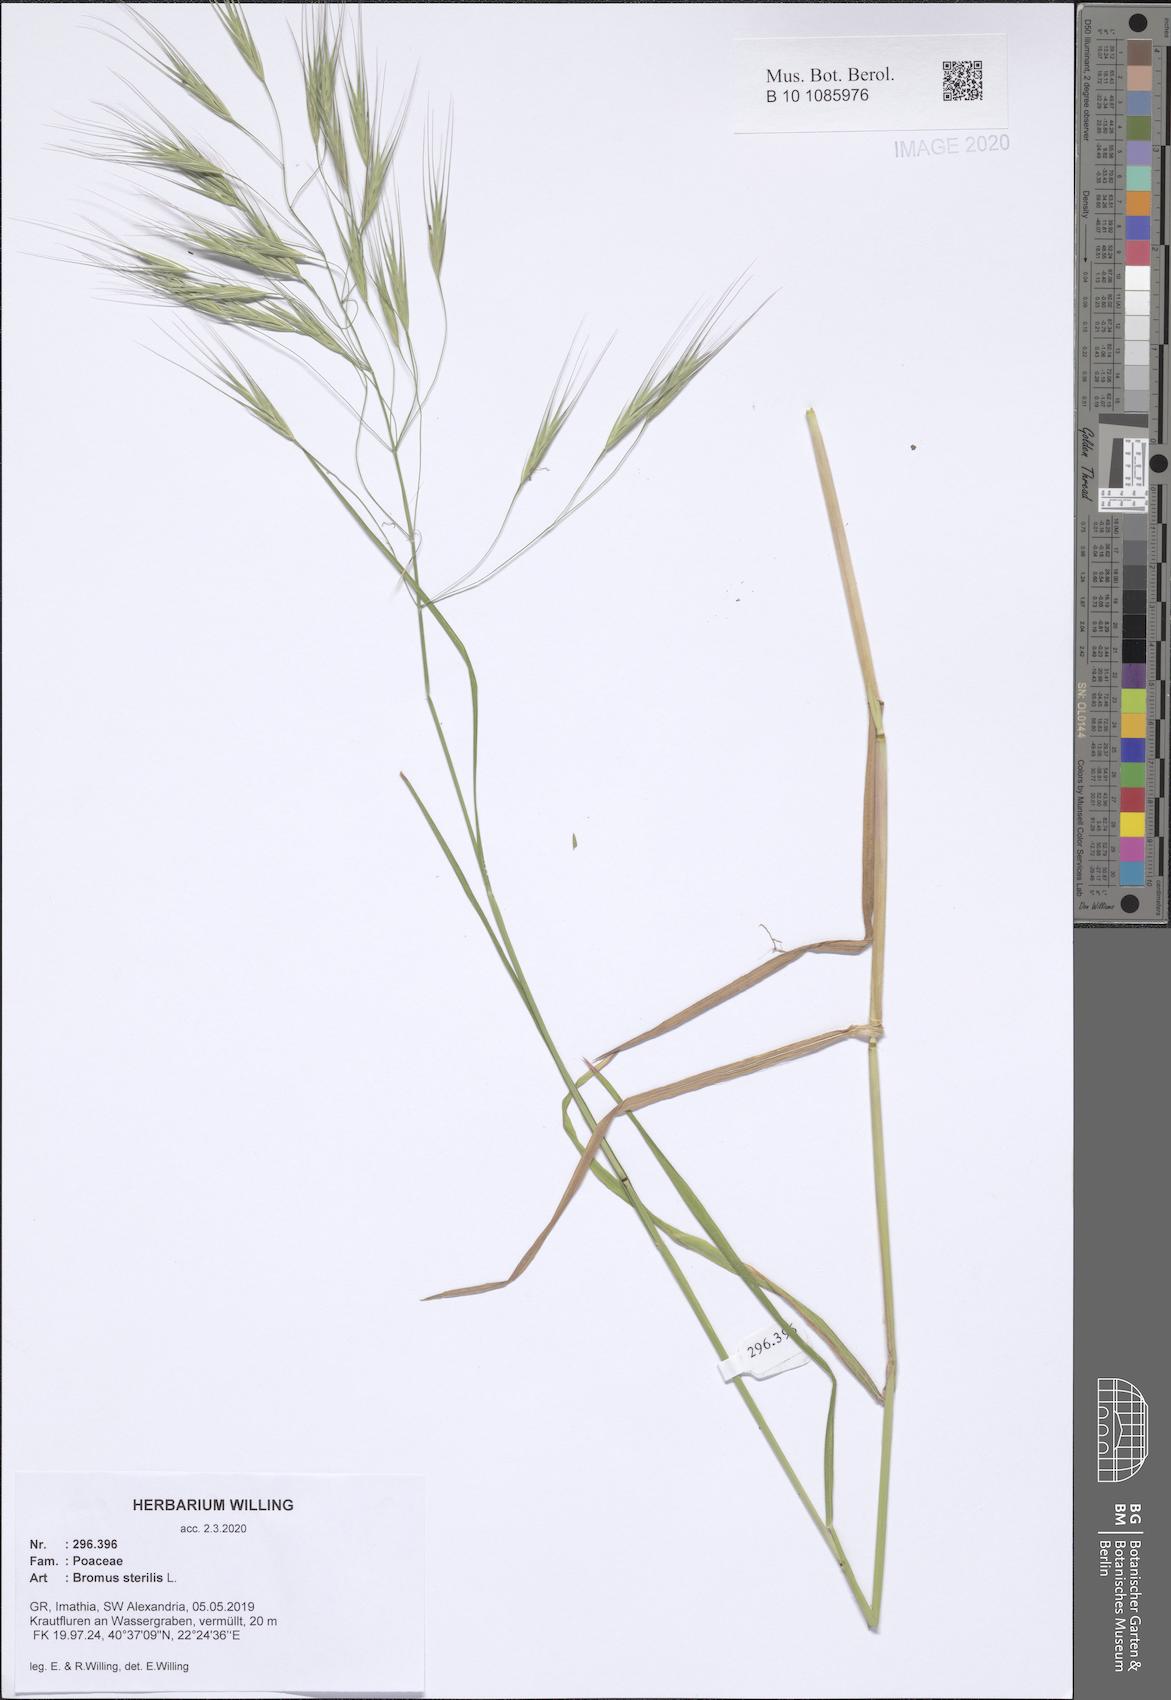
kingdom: Plantae
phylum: Tracheophyta
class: Liliopsida
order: Poales
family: Poaceae
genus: Bromus
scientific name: Bromus sterilis
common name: Poverty brome
